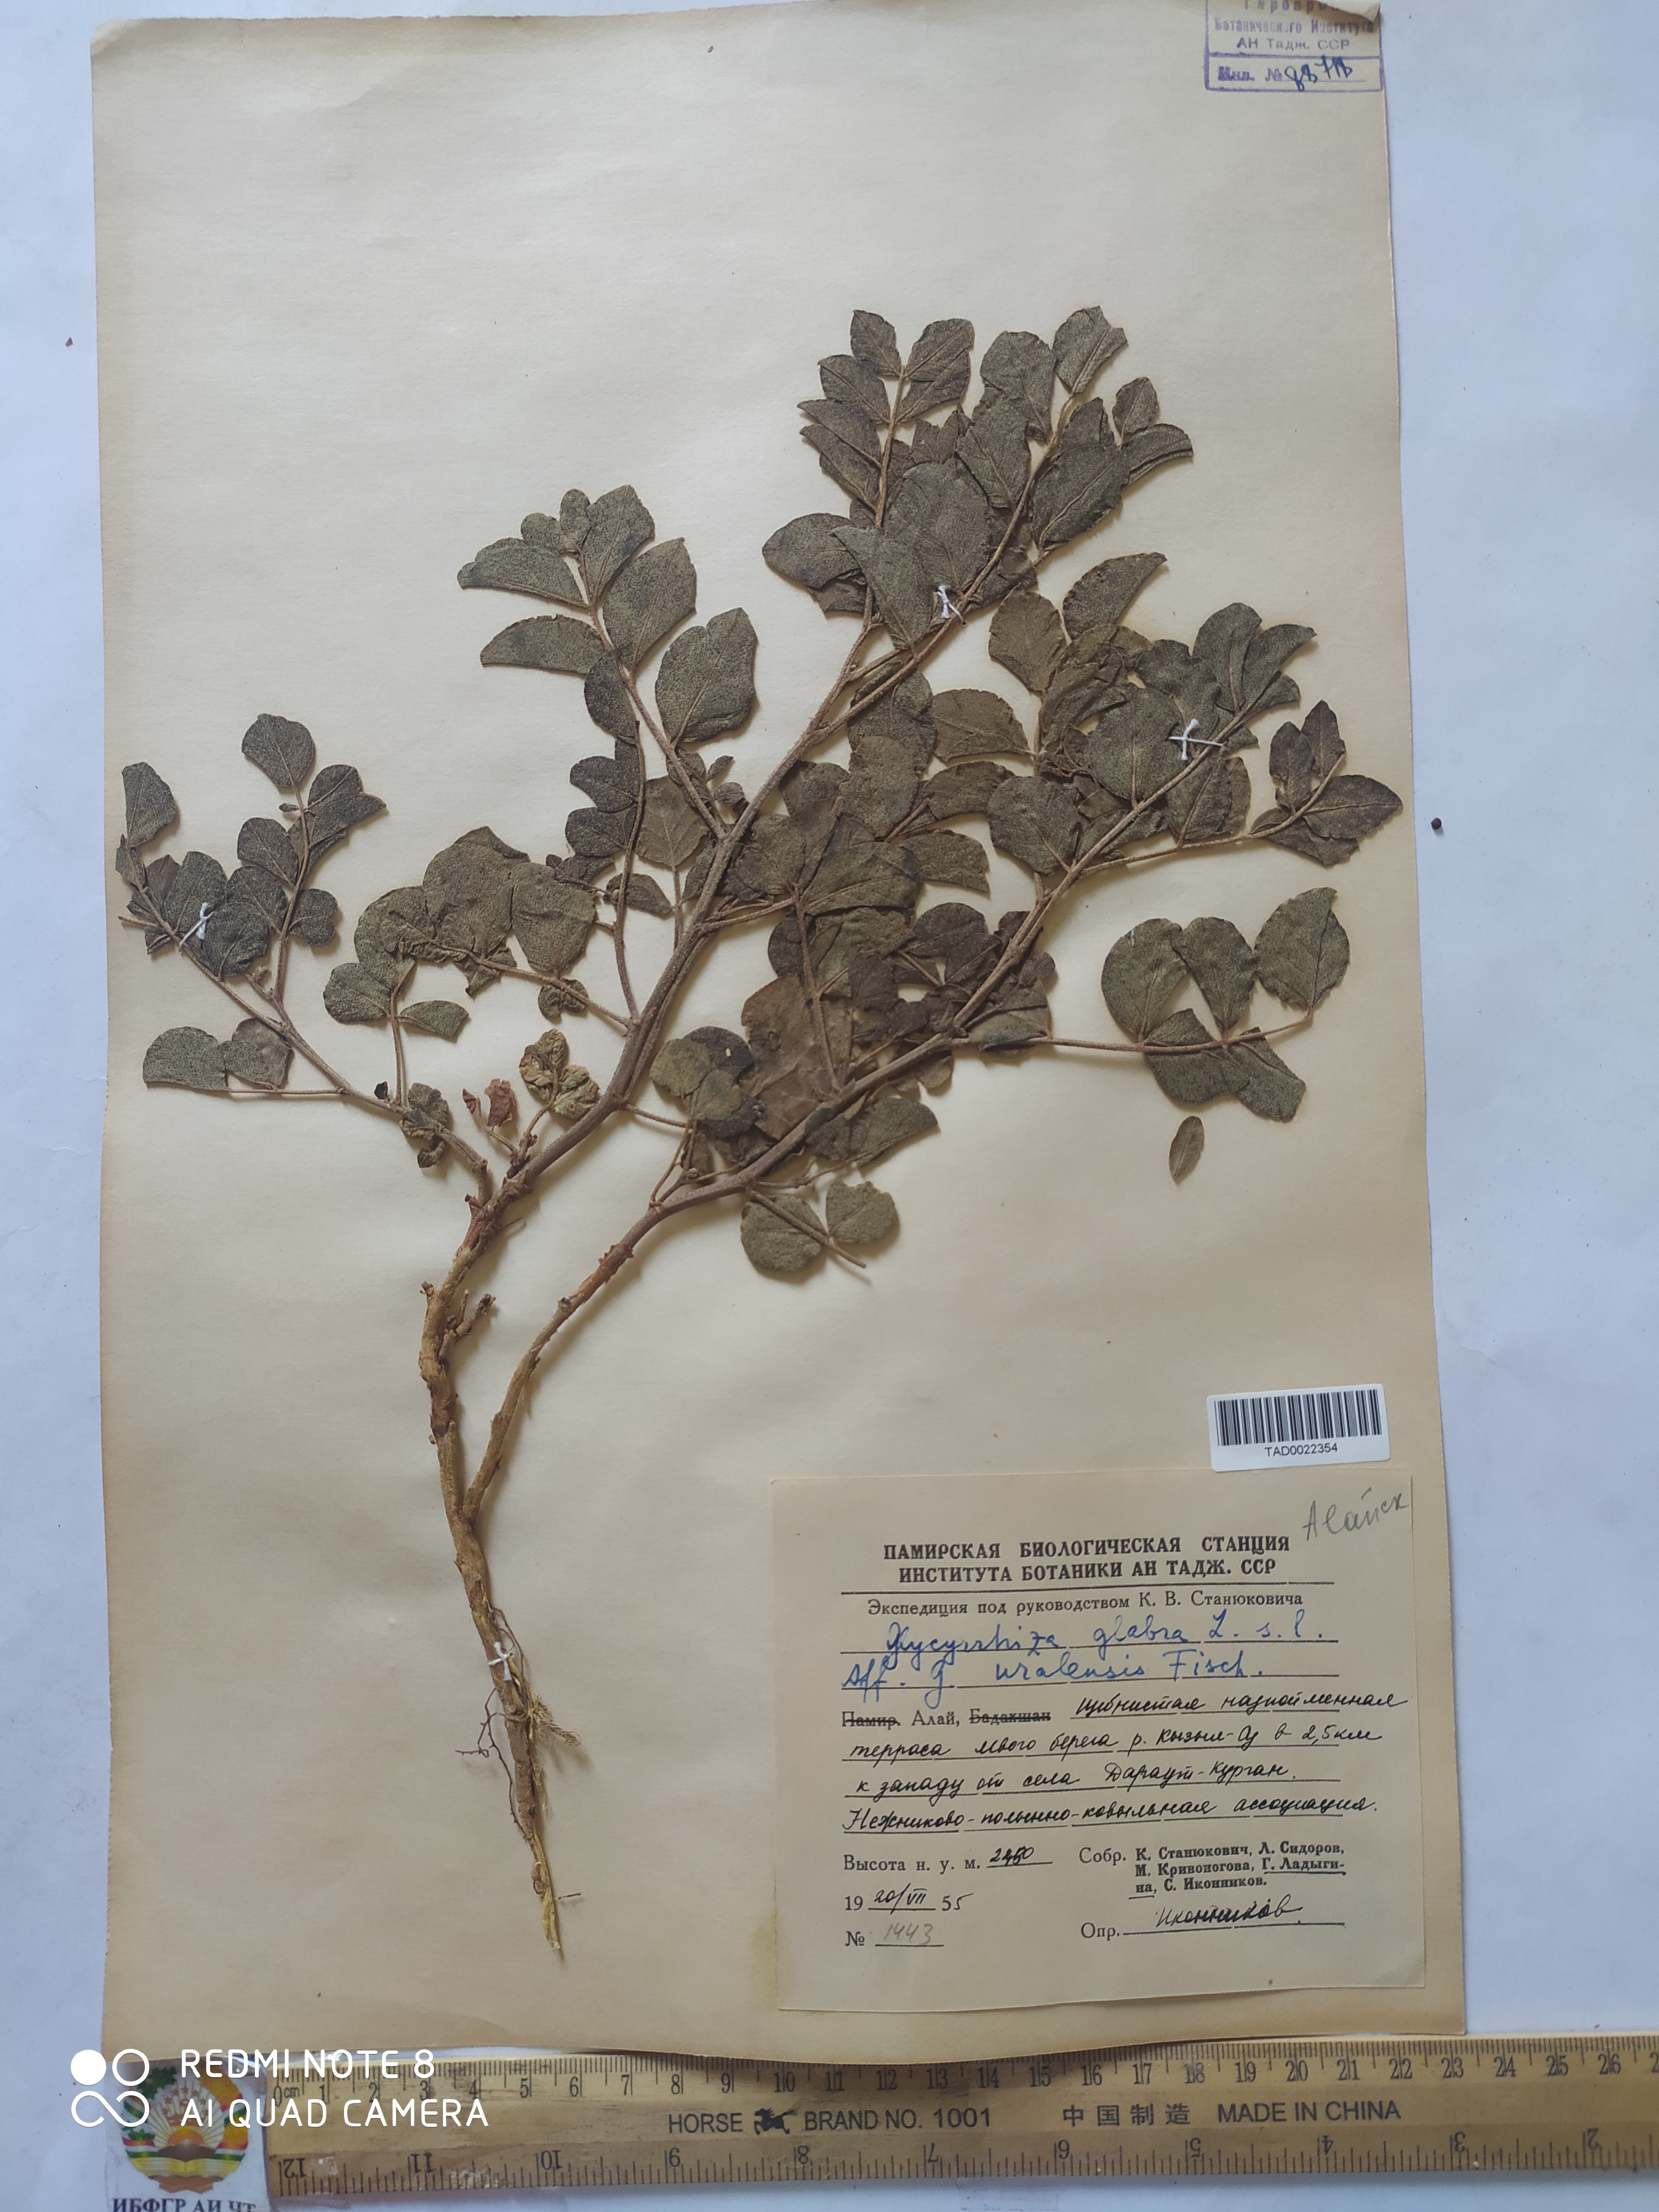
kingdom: Plantae
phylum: Tracheophyta
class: Magnoliopsida
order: Fabales
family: Fabaceae
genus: Glycyrrhiza
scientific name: Glycyrrhiza uralensis
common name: Chinese licorice
